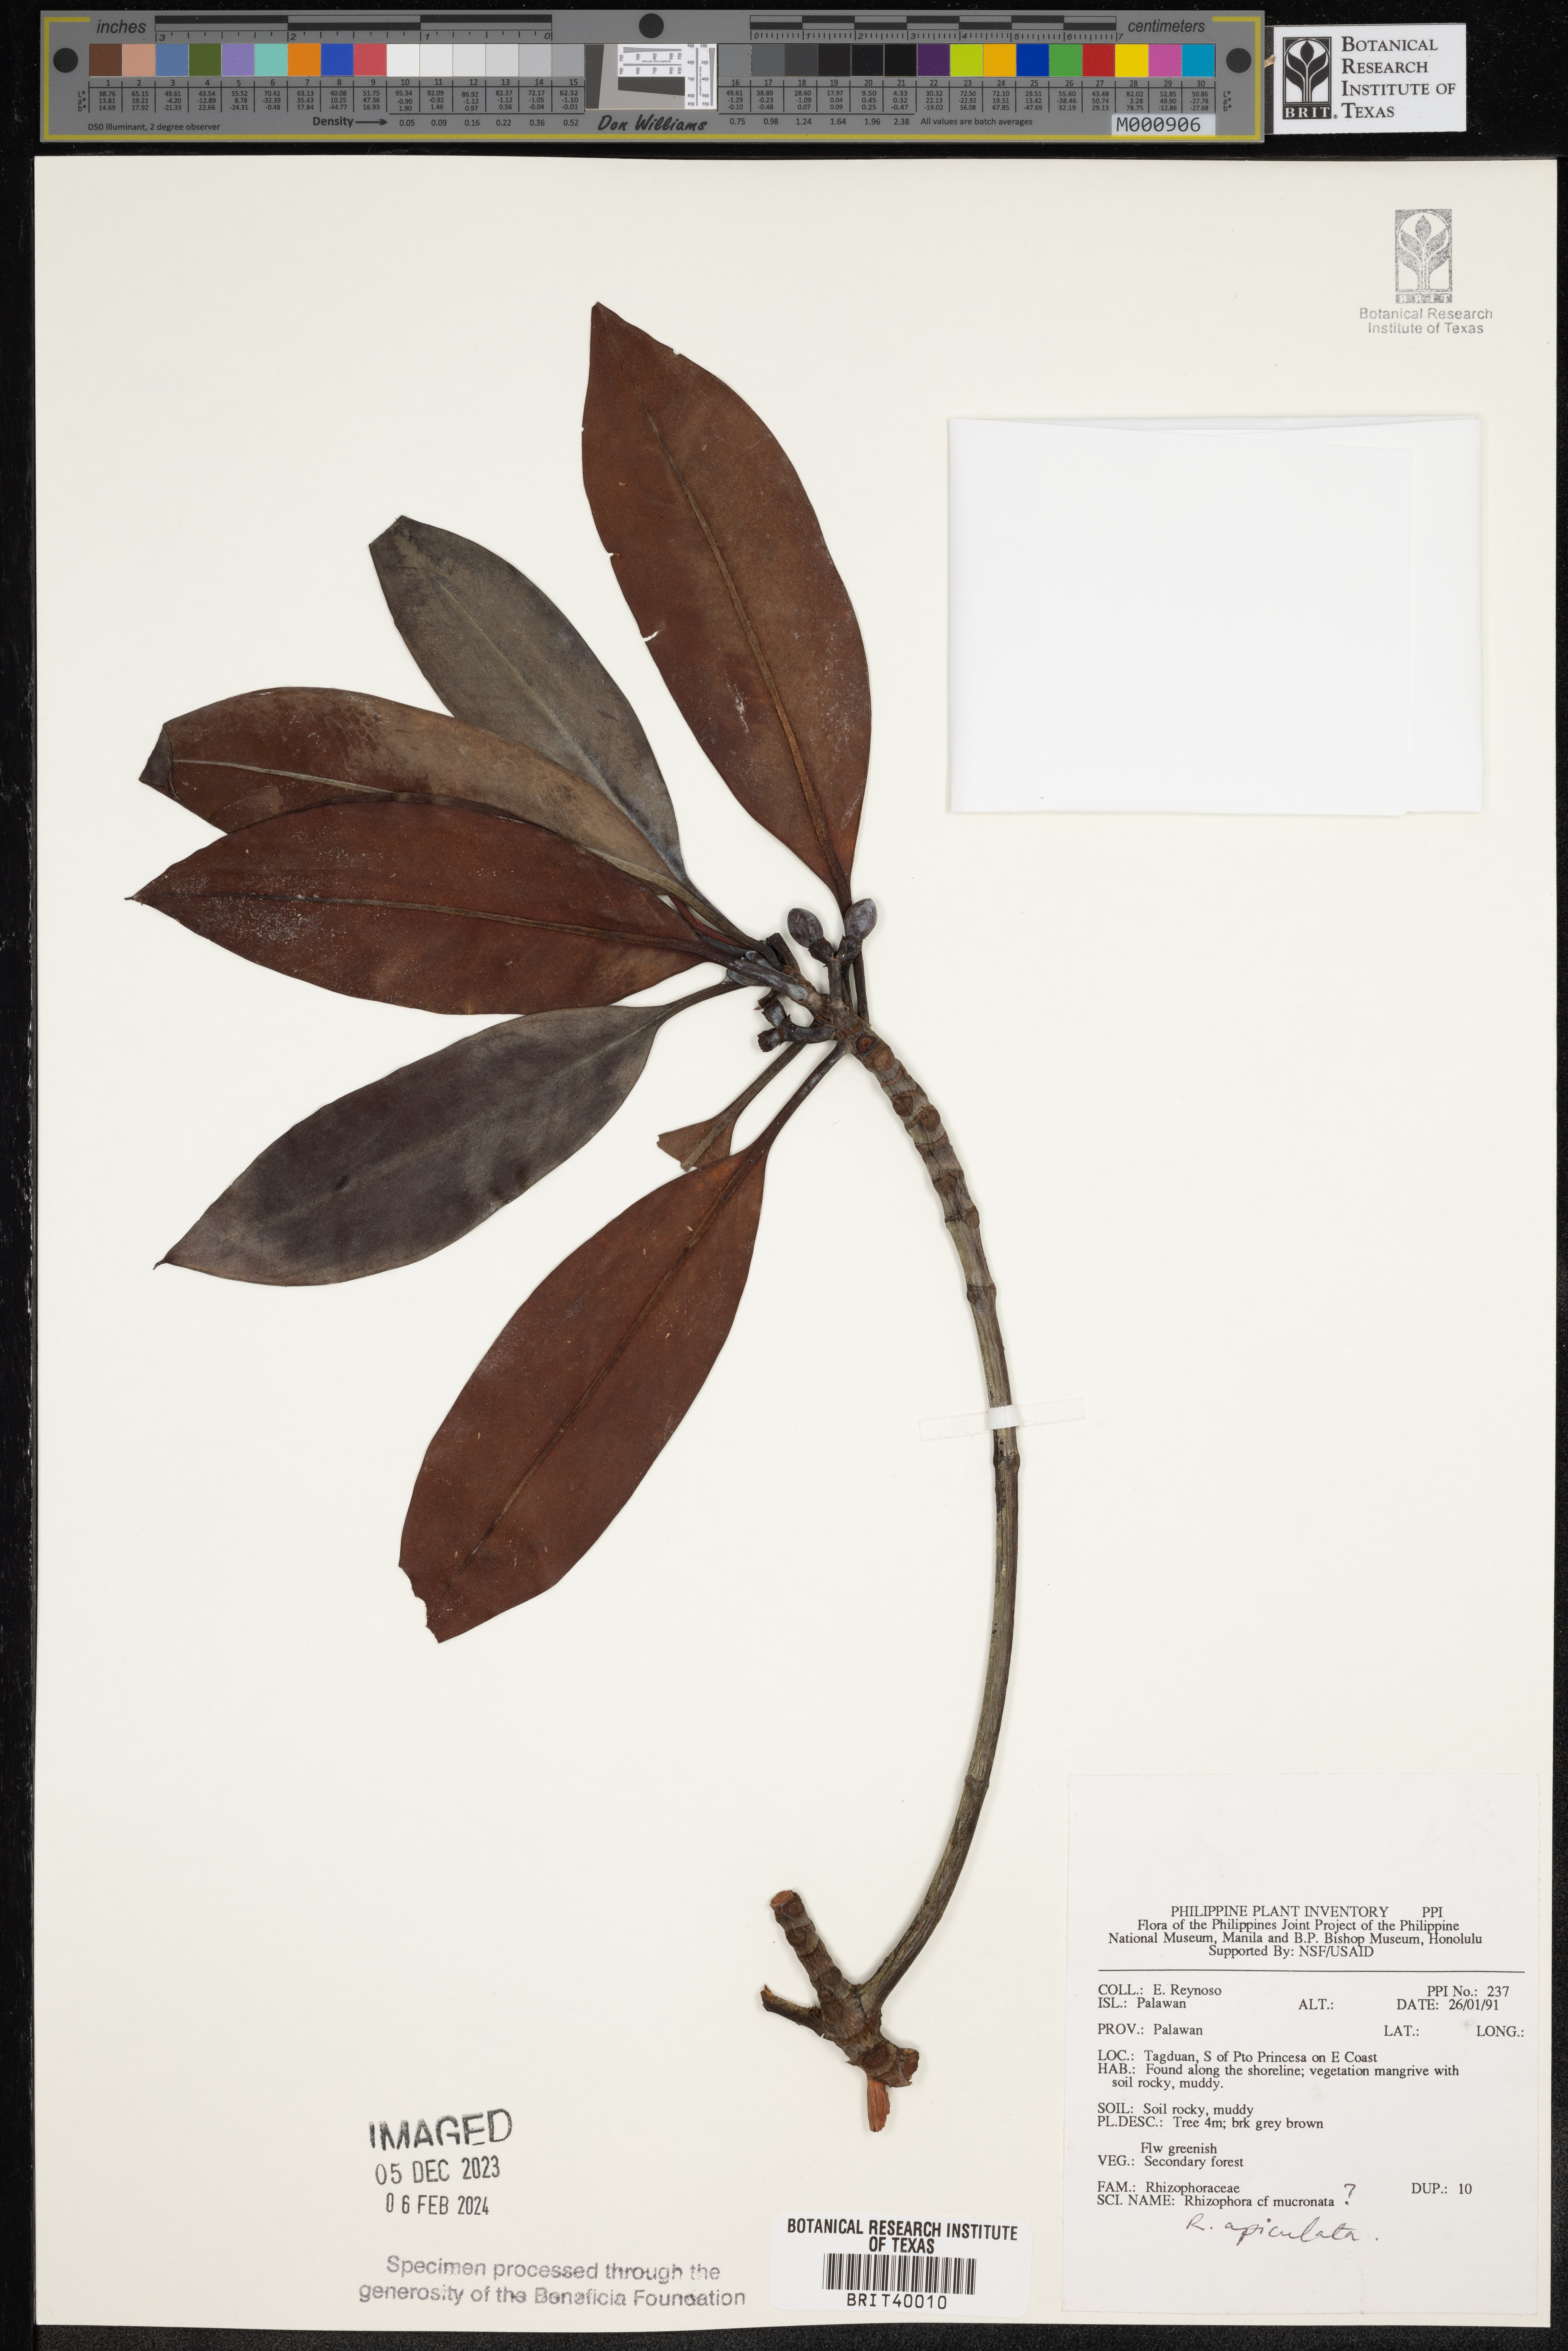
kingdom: Plantae
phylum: Tracheophyta
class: Magnoliopsida
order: Malpighiales
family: Rhizophoraceae
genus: Rhizophora
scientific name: Rhizophora apiculata
